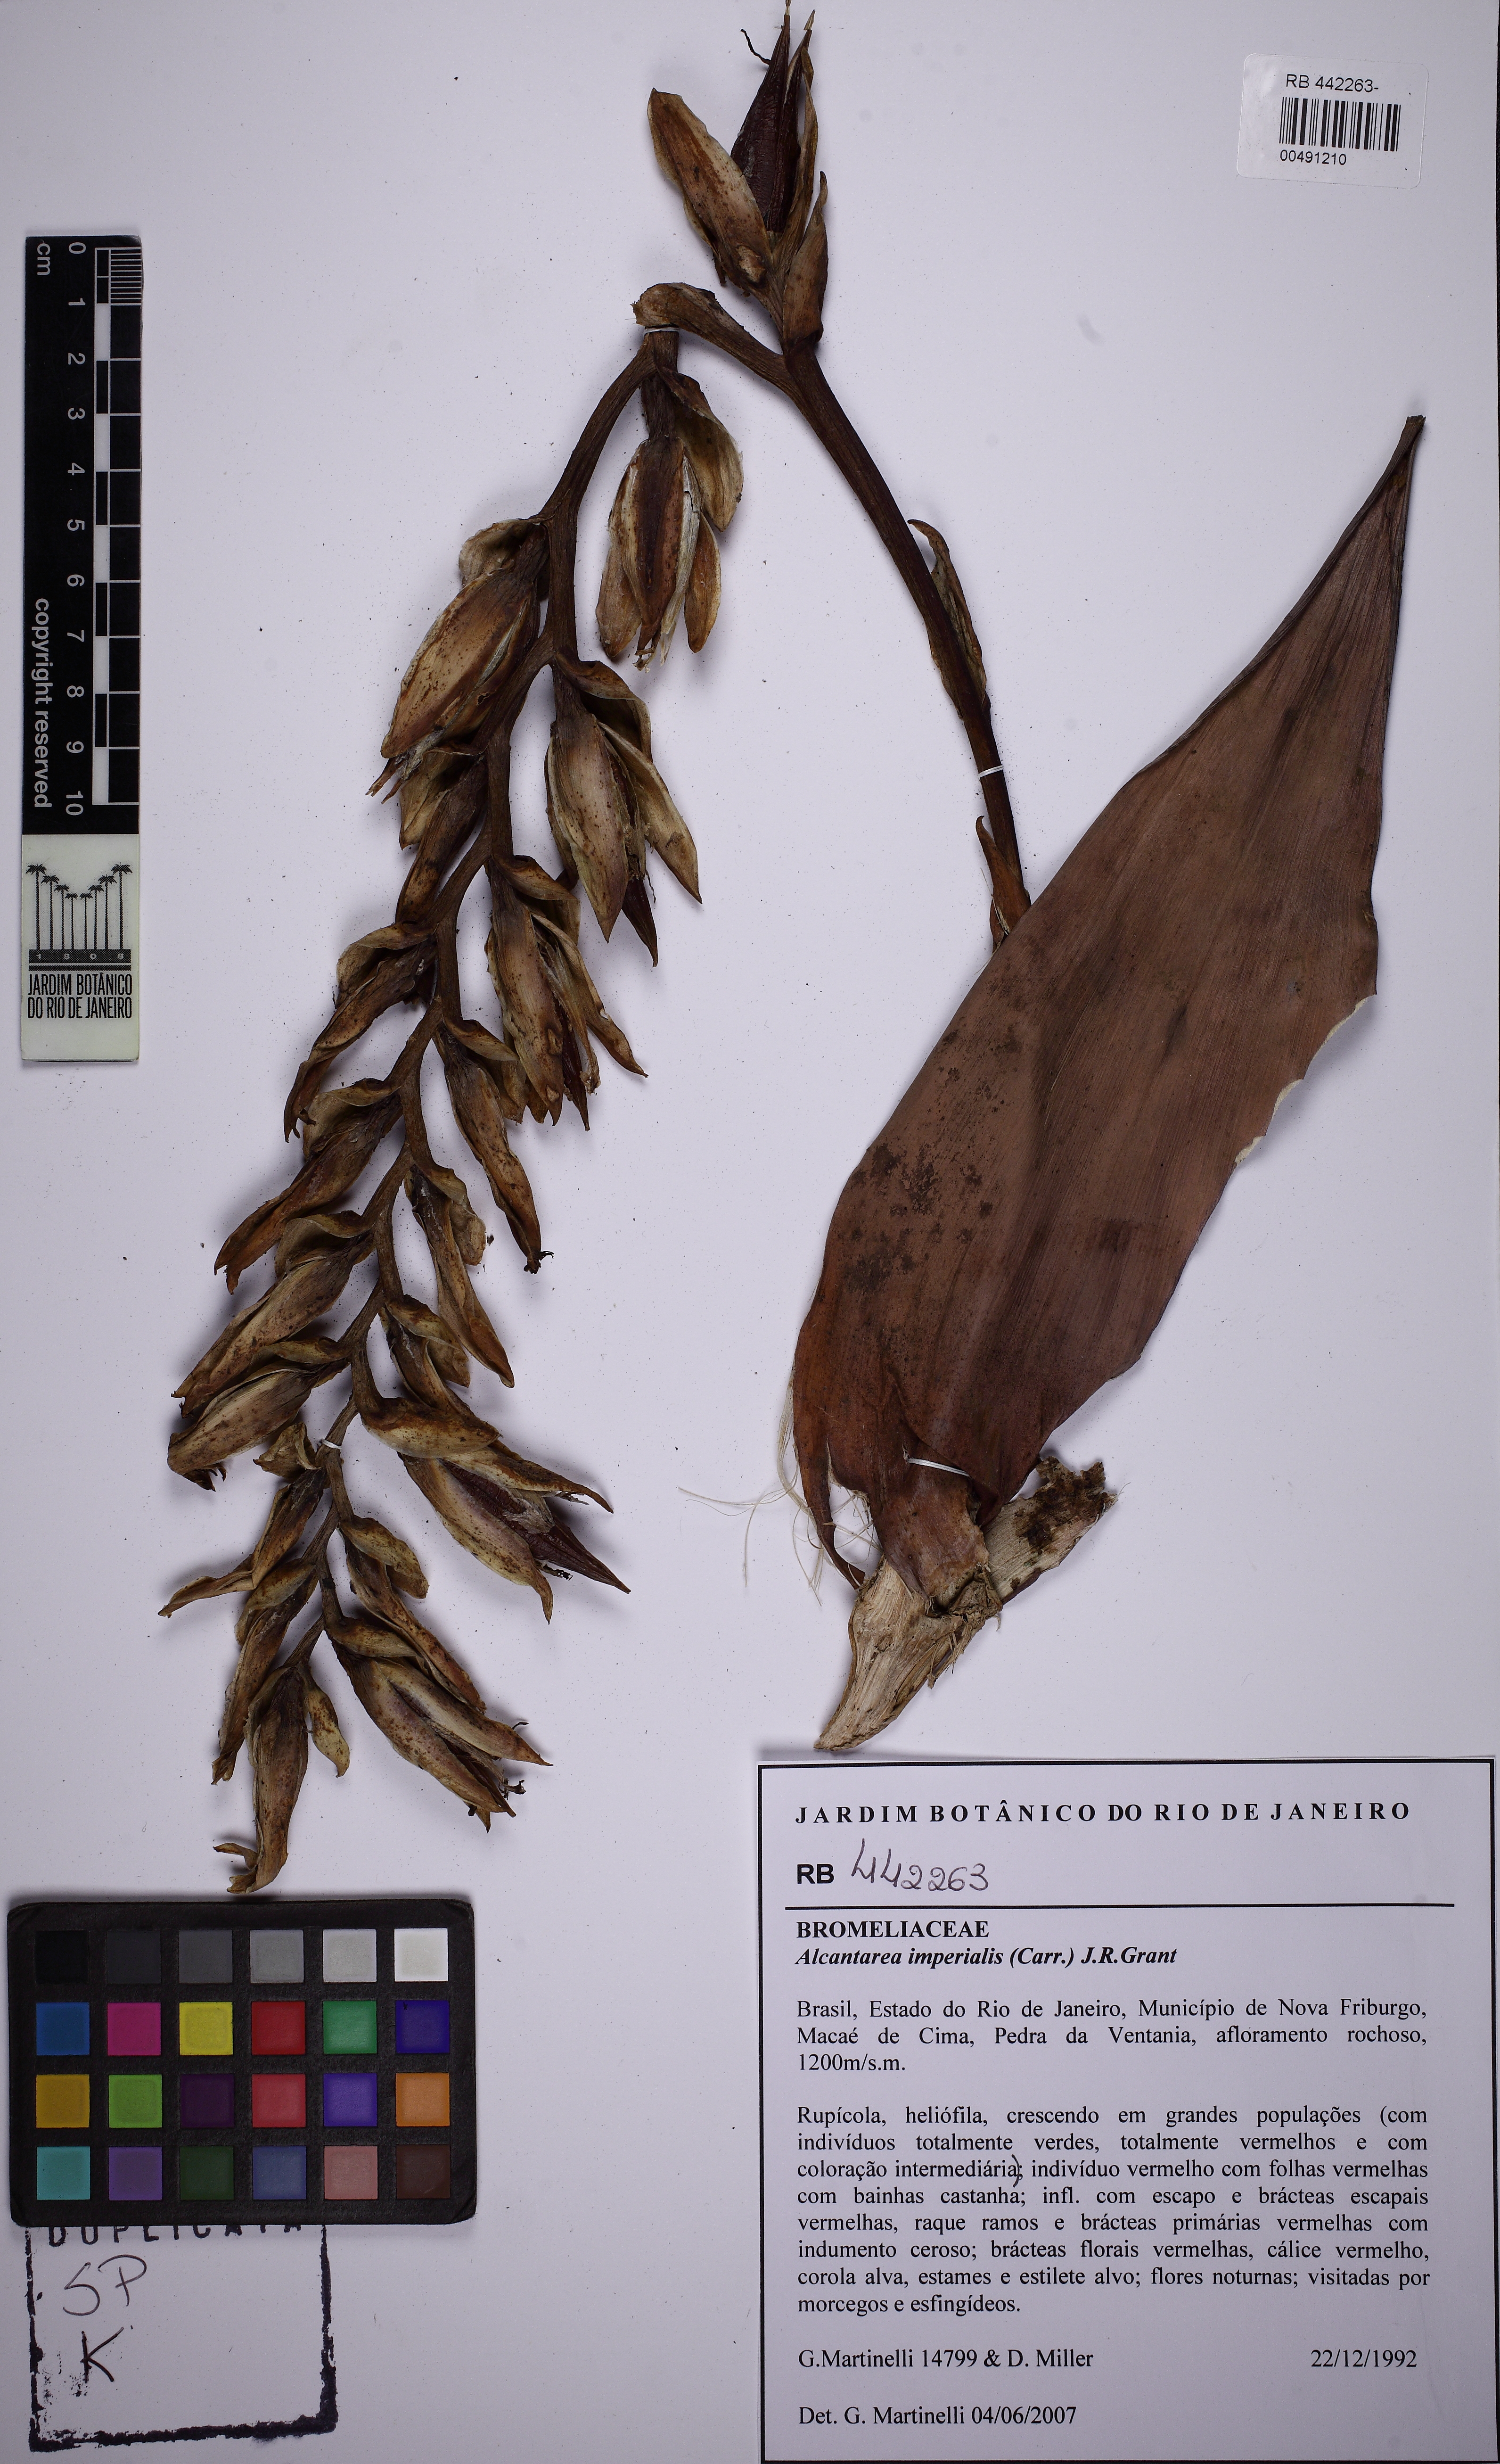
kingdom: Plantae
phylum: Tracheophyta
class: Liliopsida
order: Poales
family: Bromeliaceae
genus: Alcantarea
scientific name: Alcantarea imperialis
